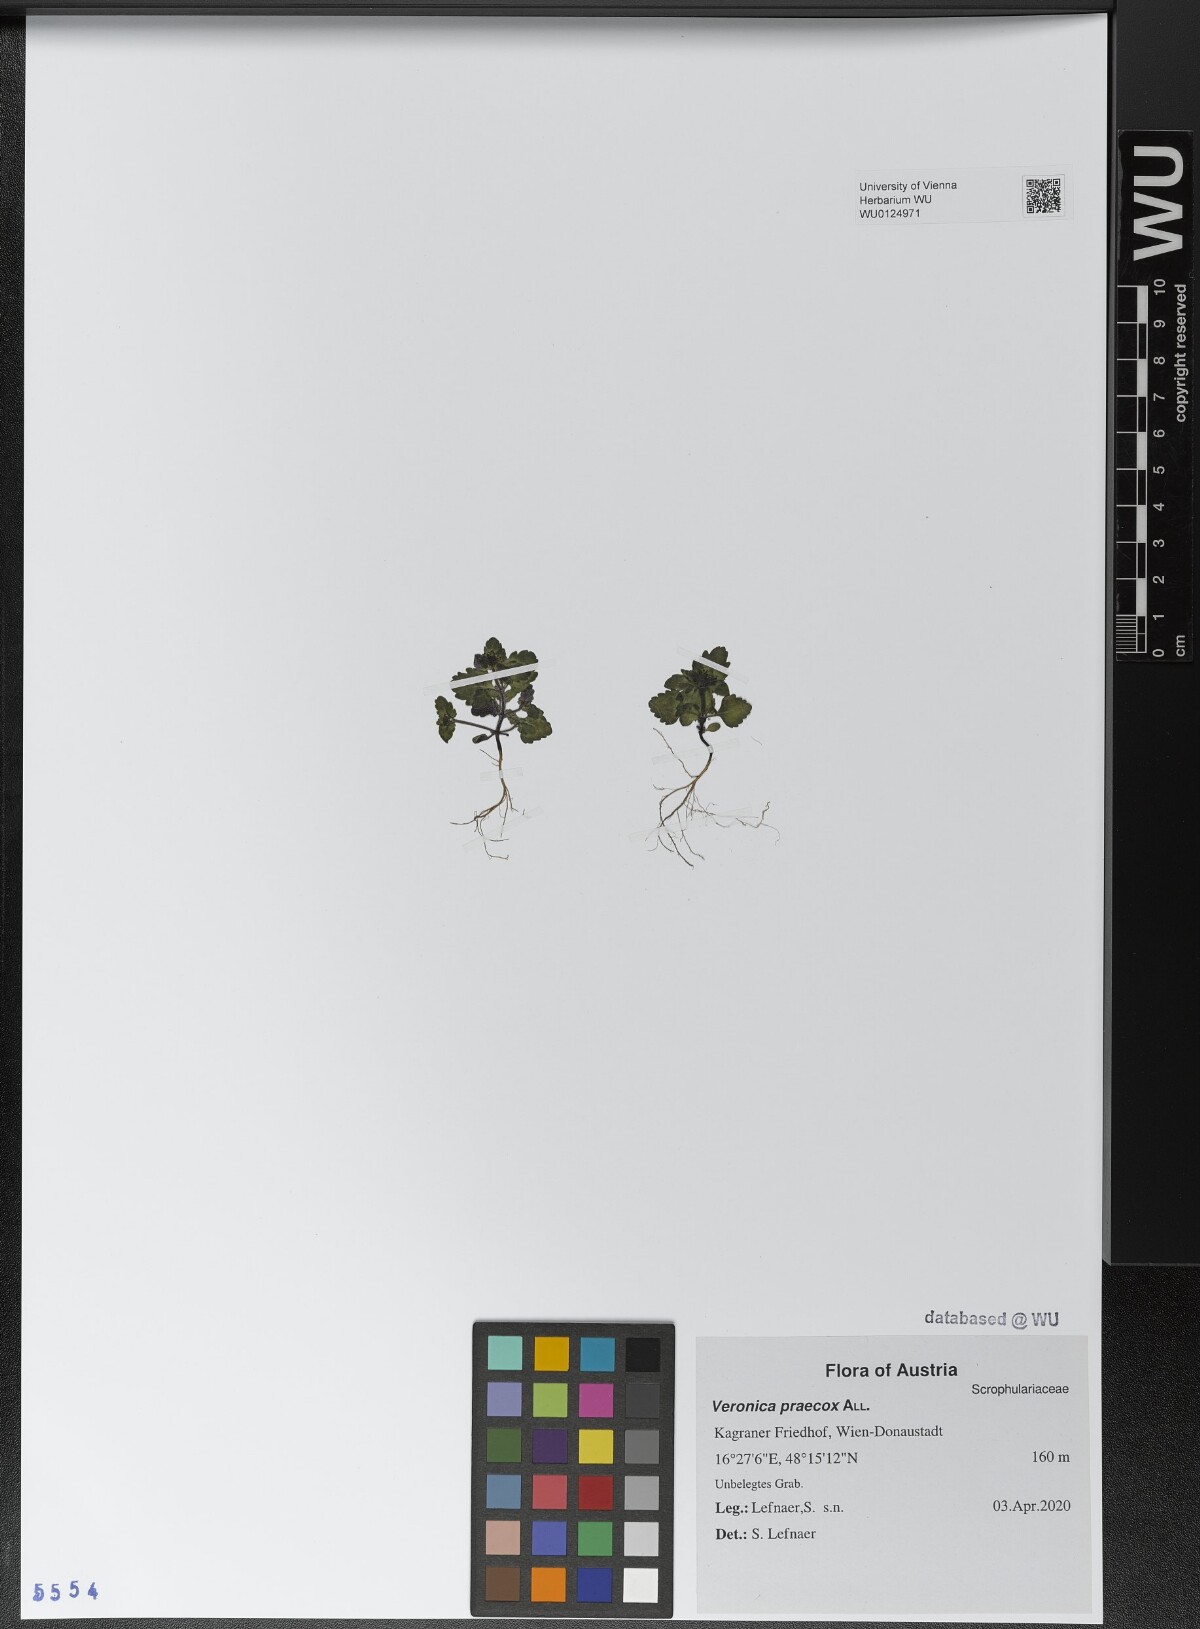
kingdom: Plantae
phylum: Tracheophyta
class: Magnoliopsida
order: Lamiales
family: Plantaginaceae
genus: Veronica
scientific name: Veronica praecox
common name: Breckland speedwell
